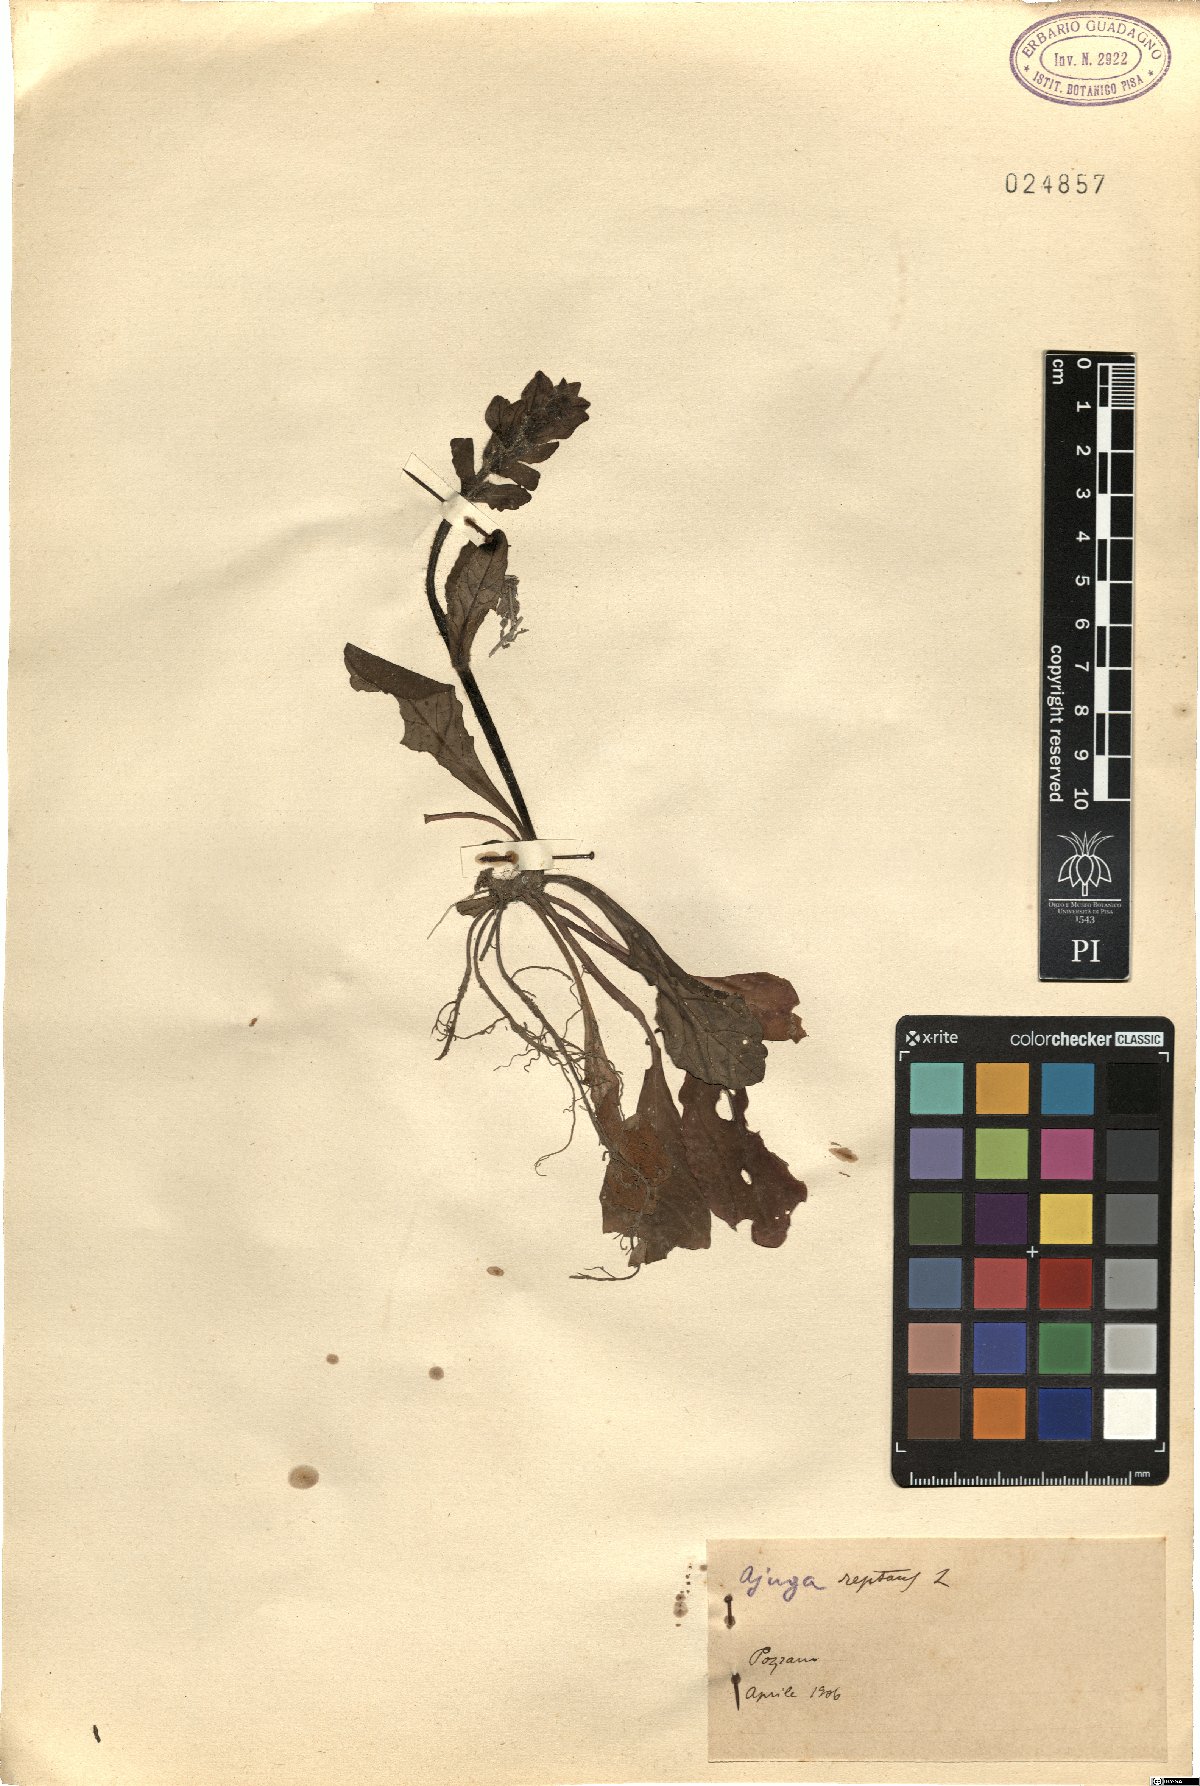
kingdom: Plantae
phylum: Tracheophyta
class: Magnoliopsida
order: Lamiales
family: Lamiaceae
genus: Ajuga
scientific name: Ajuga reptans
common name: Bugle
